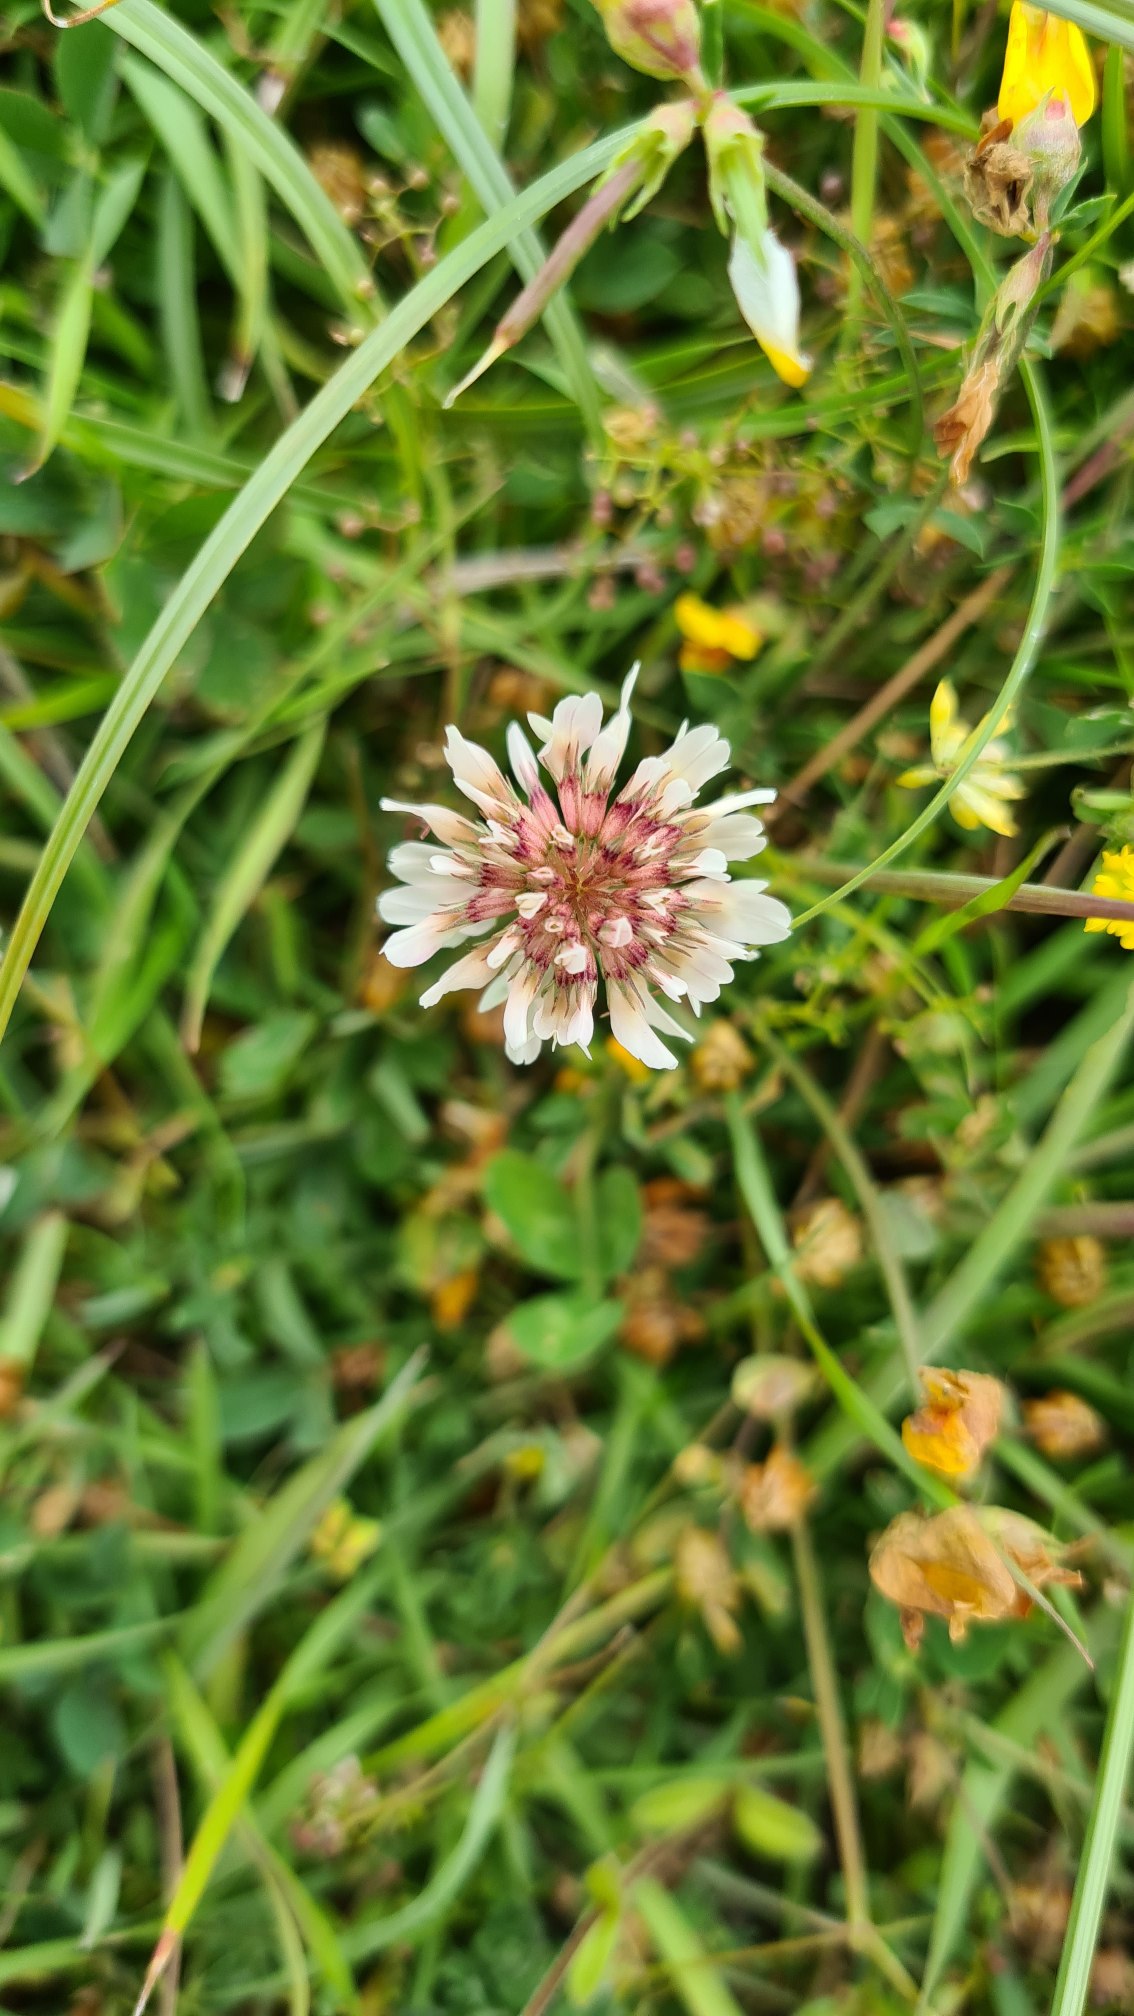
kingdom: Plantae
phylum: Tracheophyta
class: Magnoliopsida
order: Fabales
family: Fabaceae
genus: Trifolium
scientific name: Trifolium repens
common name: Hvid-kløver
